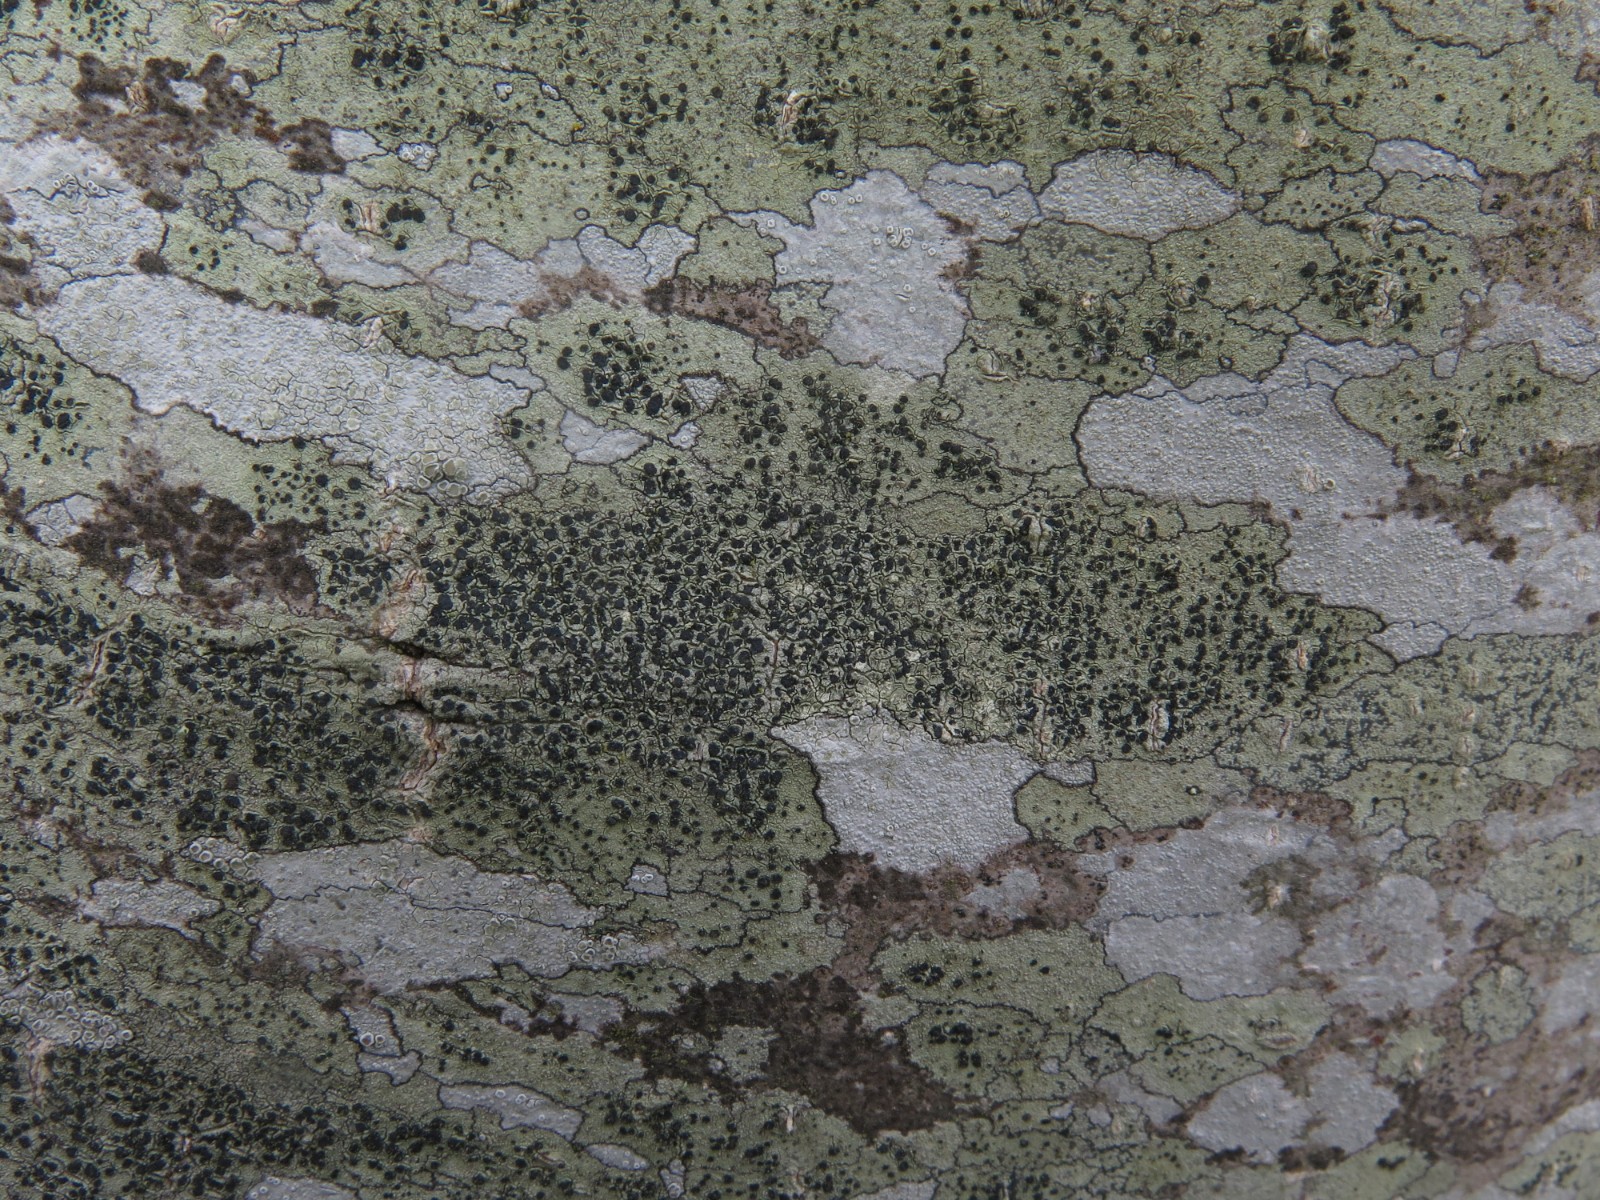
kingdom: Fungi
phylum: Ascomycota
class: Lecanoromycetes
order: Lecanorales
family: Lecanoraceae
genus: Lecidella
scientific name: Lecidella elaeochroma
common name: grågrøn skivelav
